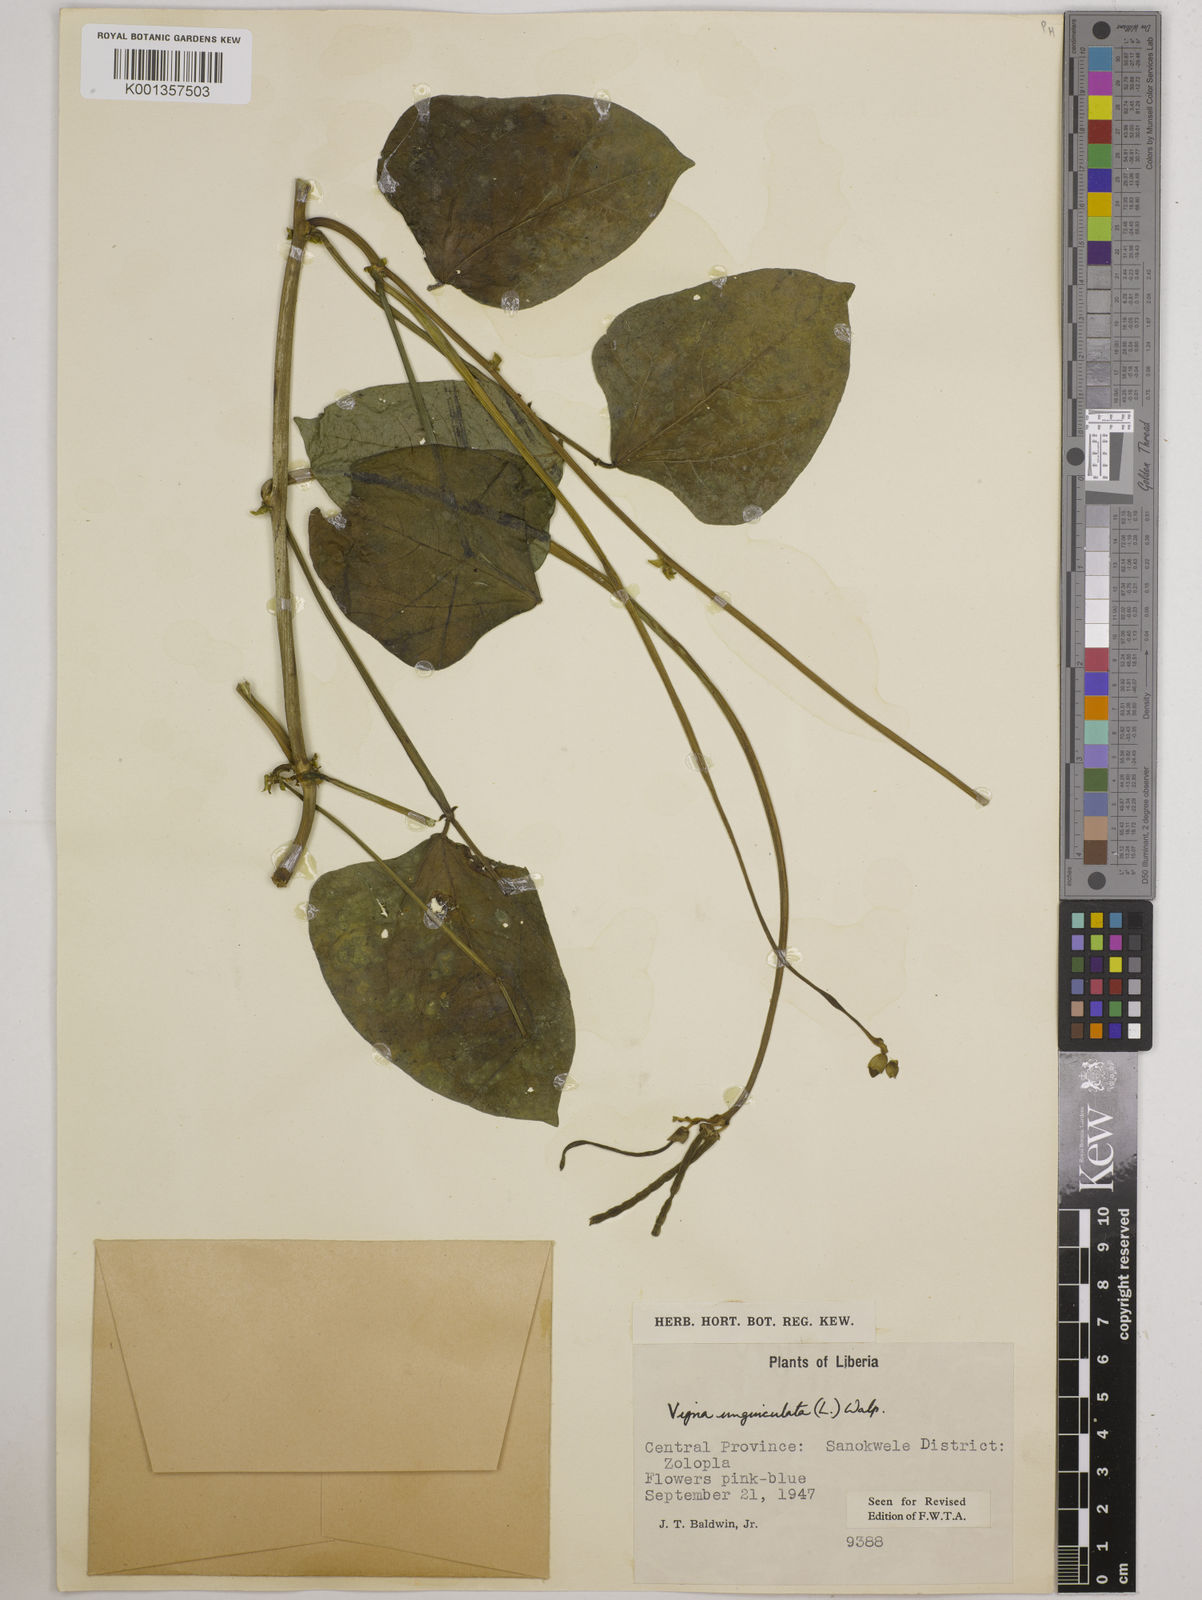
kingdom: Plantae
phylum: Tracheophyta
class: Magnoliopsida
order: Fabales
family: Fabaceae
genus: Vigna
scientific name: Vigna
